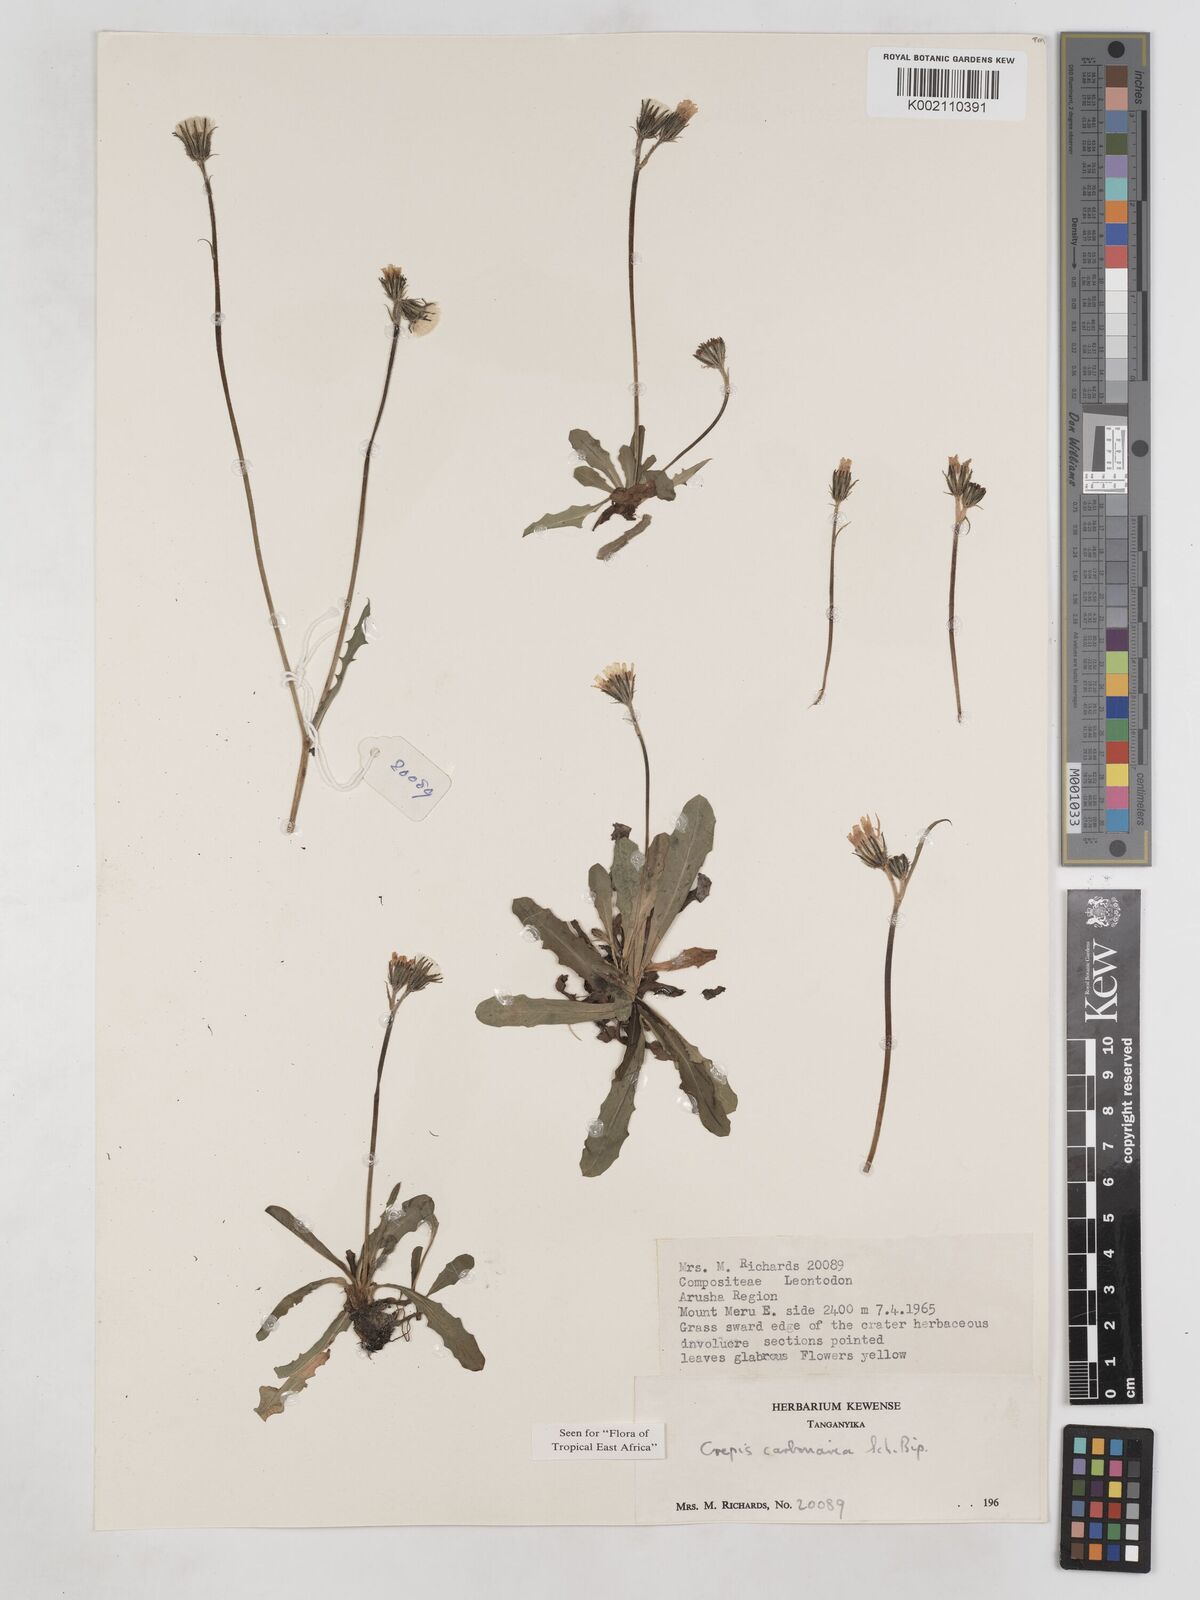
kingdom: Plantae
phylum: Tracheophyta
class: Magnoliopsida
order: Asterales
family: Asteraceae
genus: Crepis
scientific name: Crepis carbonaria
